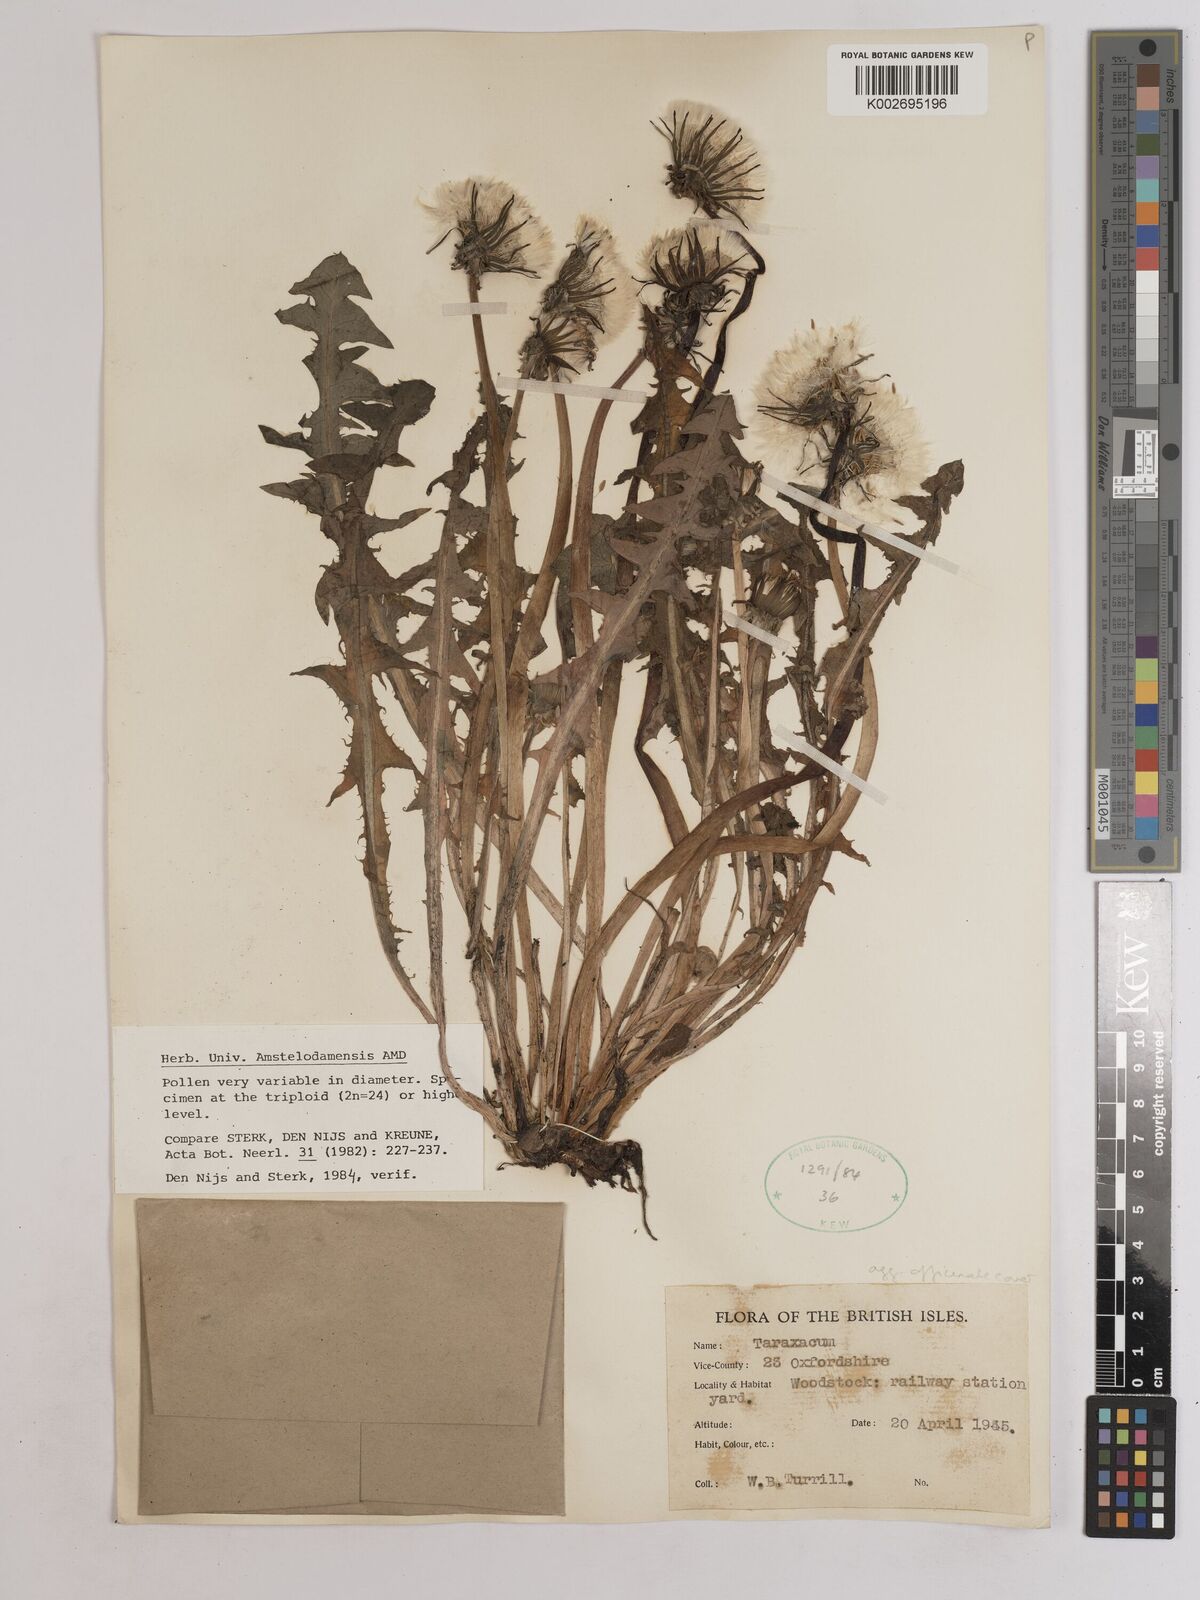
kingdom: Plantae
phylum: Tracheophyta
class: Magnoliopsida
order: Asterales
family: Asteraceae
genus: Taraxacum
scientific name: Taraxacum officinale
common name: Common dandelion
